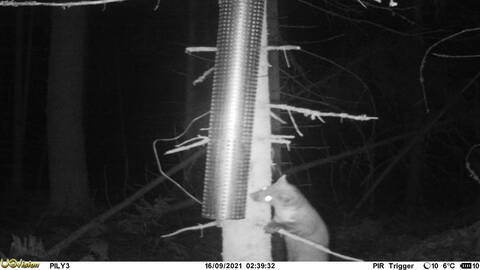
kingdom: Animalia
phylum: Chordata
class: Mammalia
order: Carnivora
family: Mustelidae
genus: Martes
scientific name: Martes martes
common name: European pine marten
